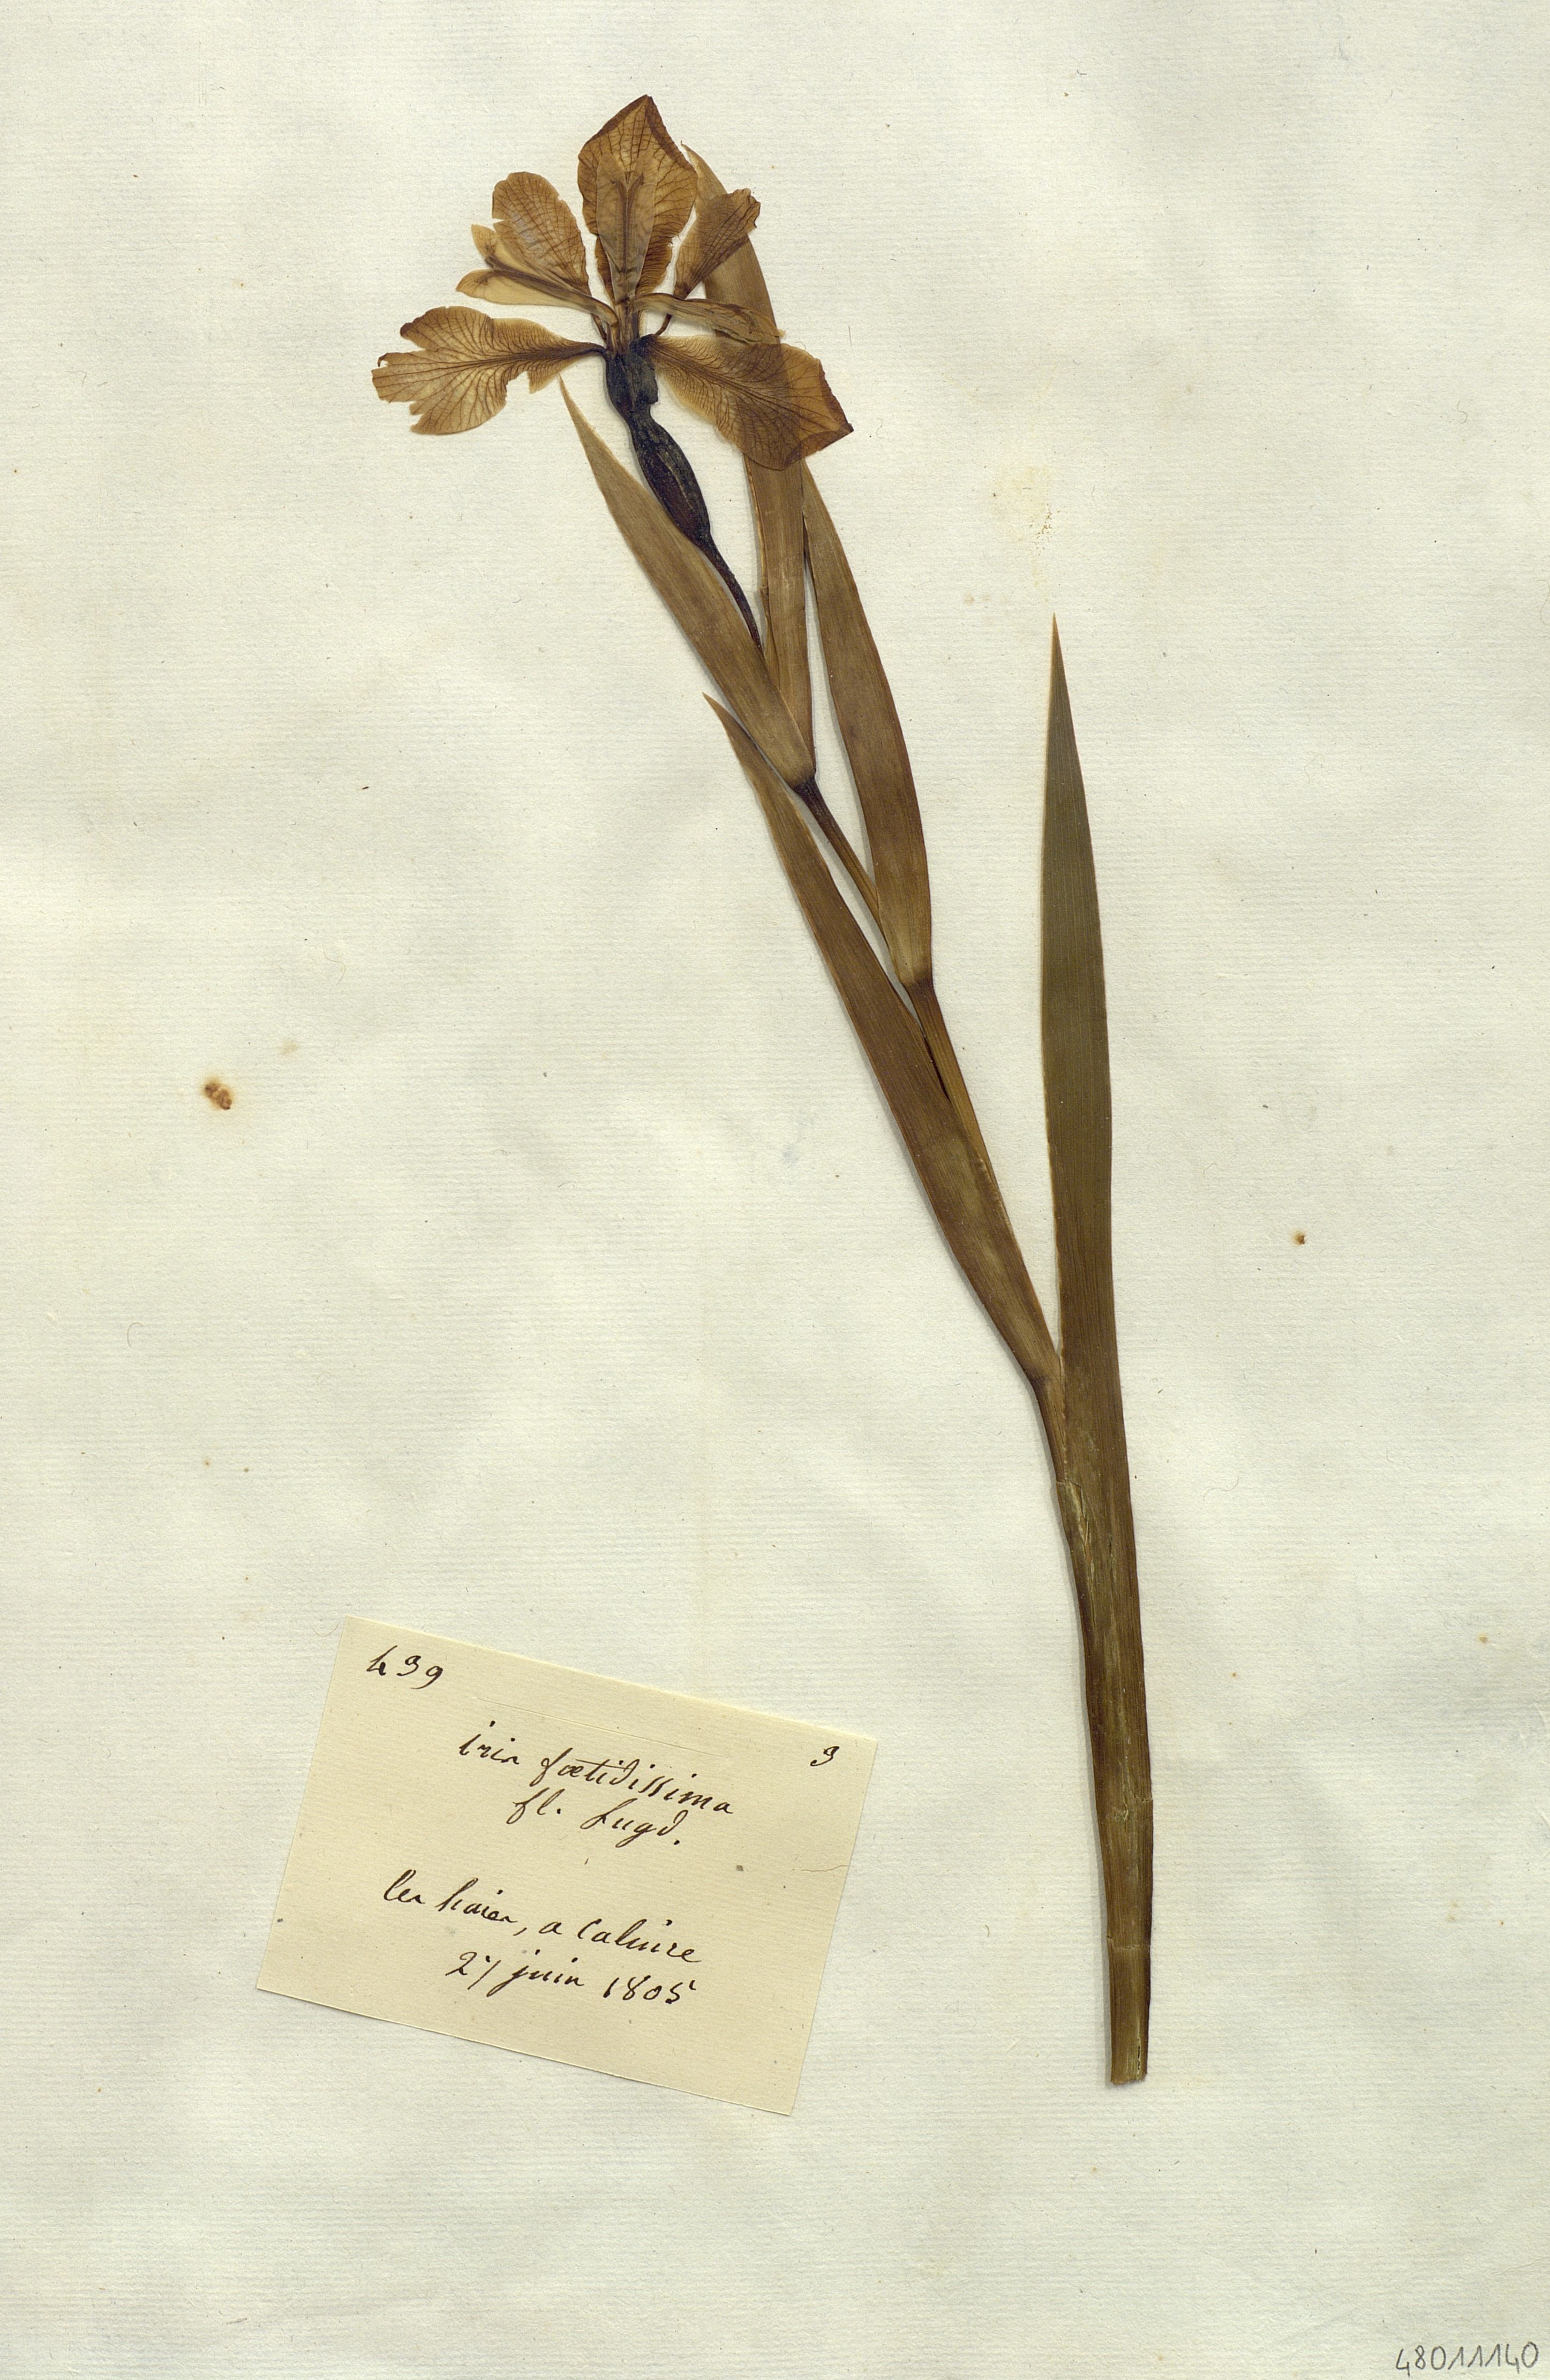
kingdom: Plantae
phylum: Tracheophyta
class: Liliopsida
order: Asparagales
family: Iridaceae
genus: Iris
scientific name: Iris foetidissima
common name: Stinking iris
